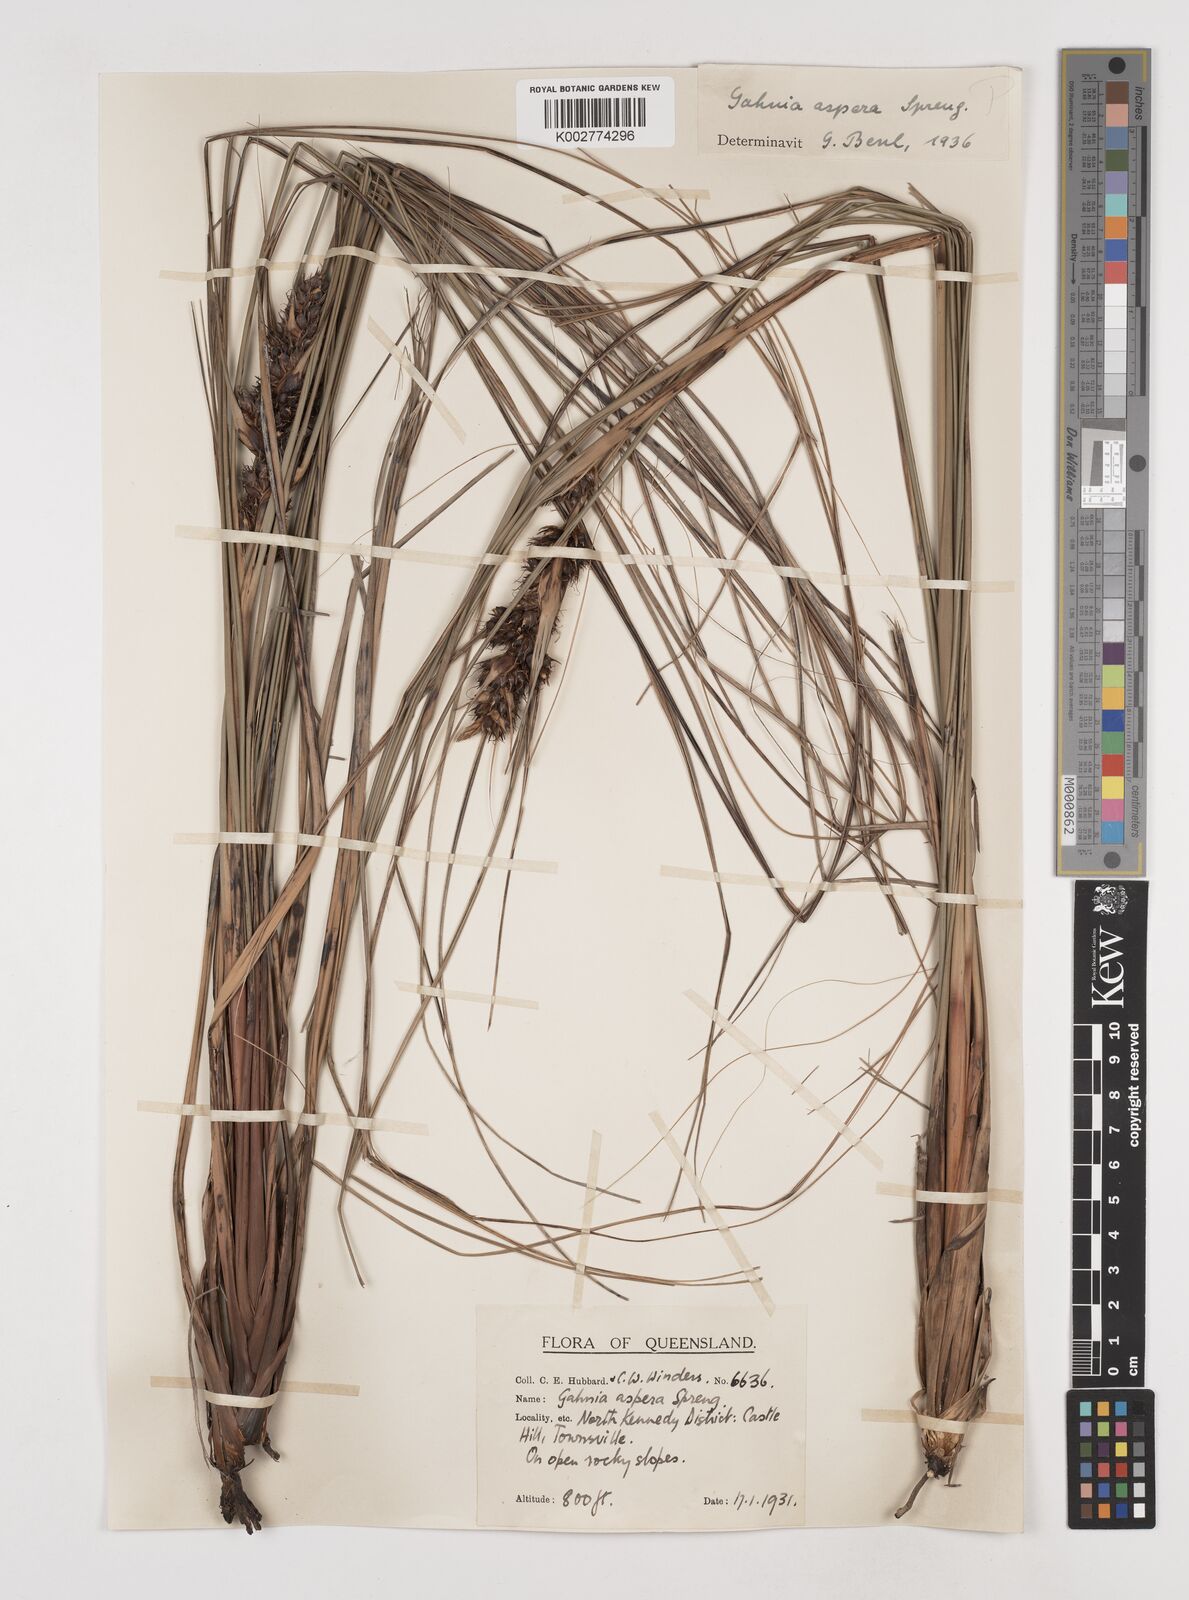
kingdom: Plantae
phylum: Tracheophyta
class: Liliopsida
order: Poales
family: Cyperaceae
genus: Gahnia
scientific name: Gahnia aspera
